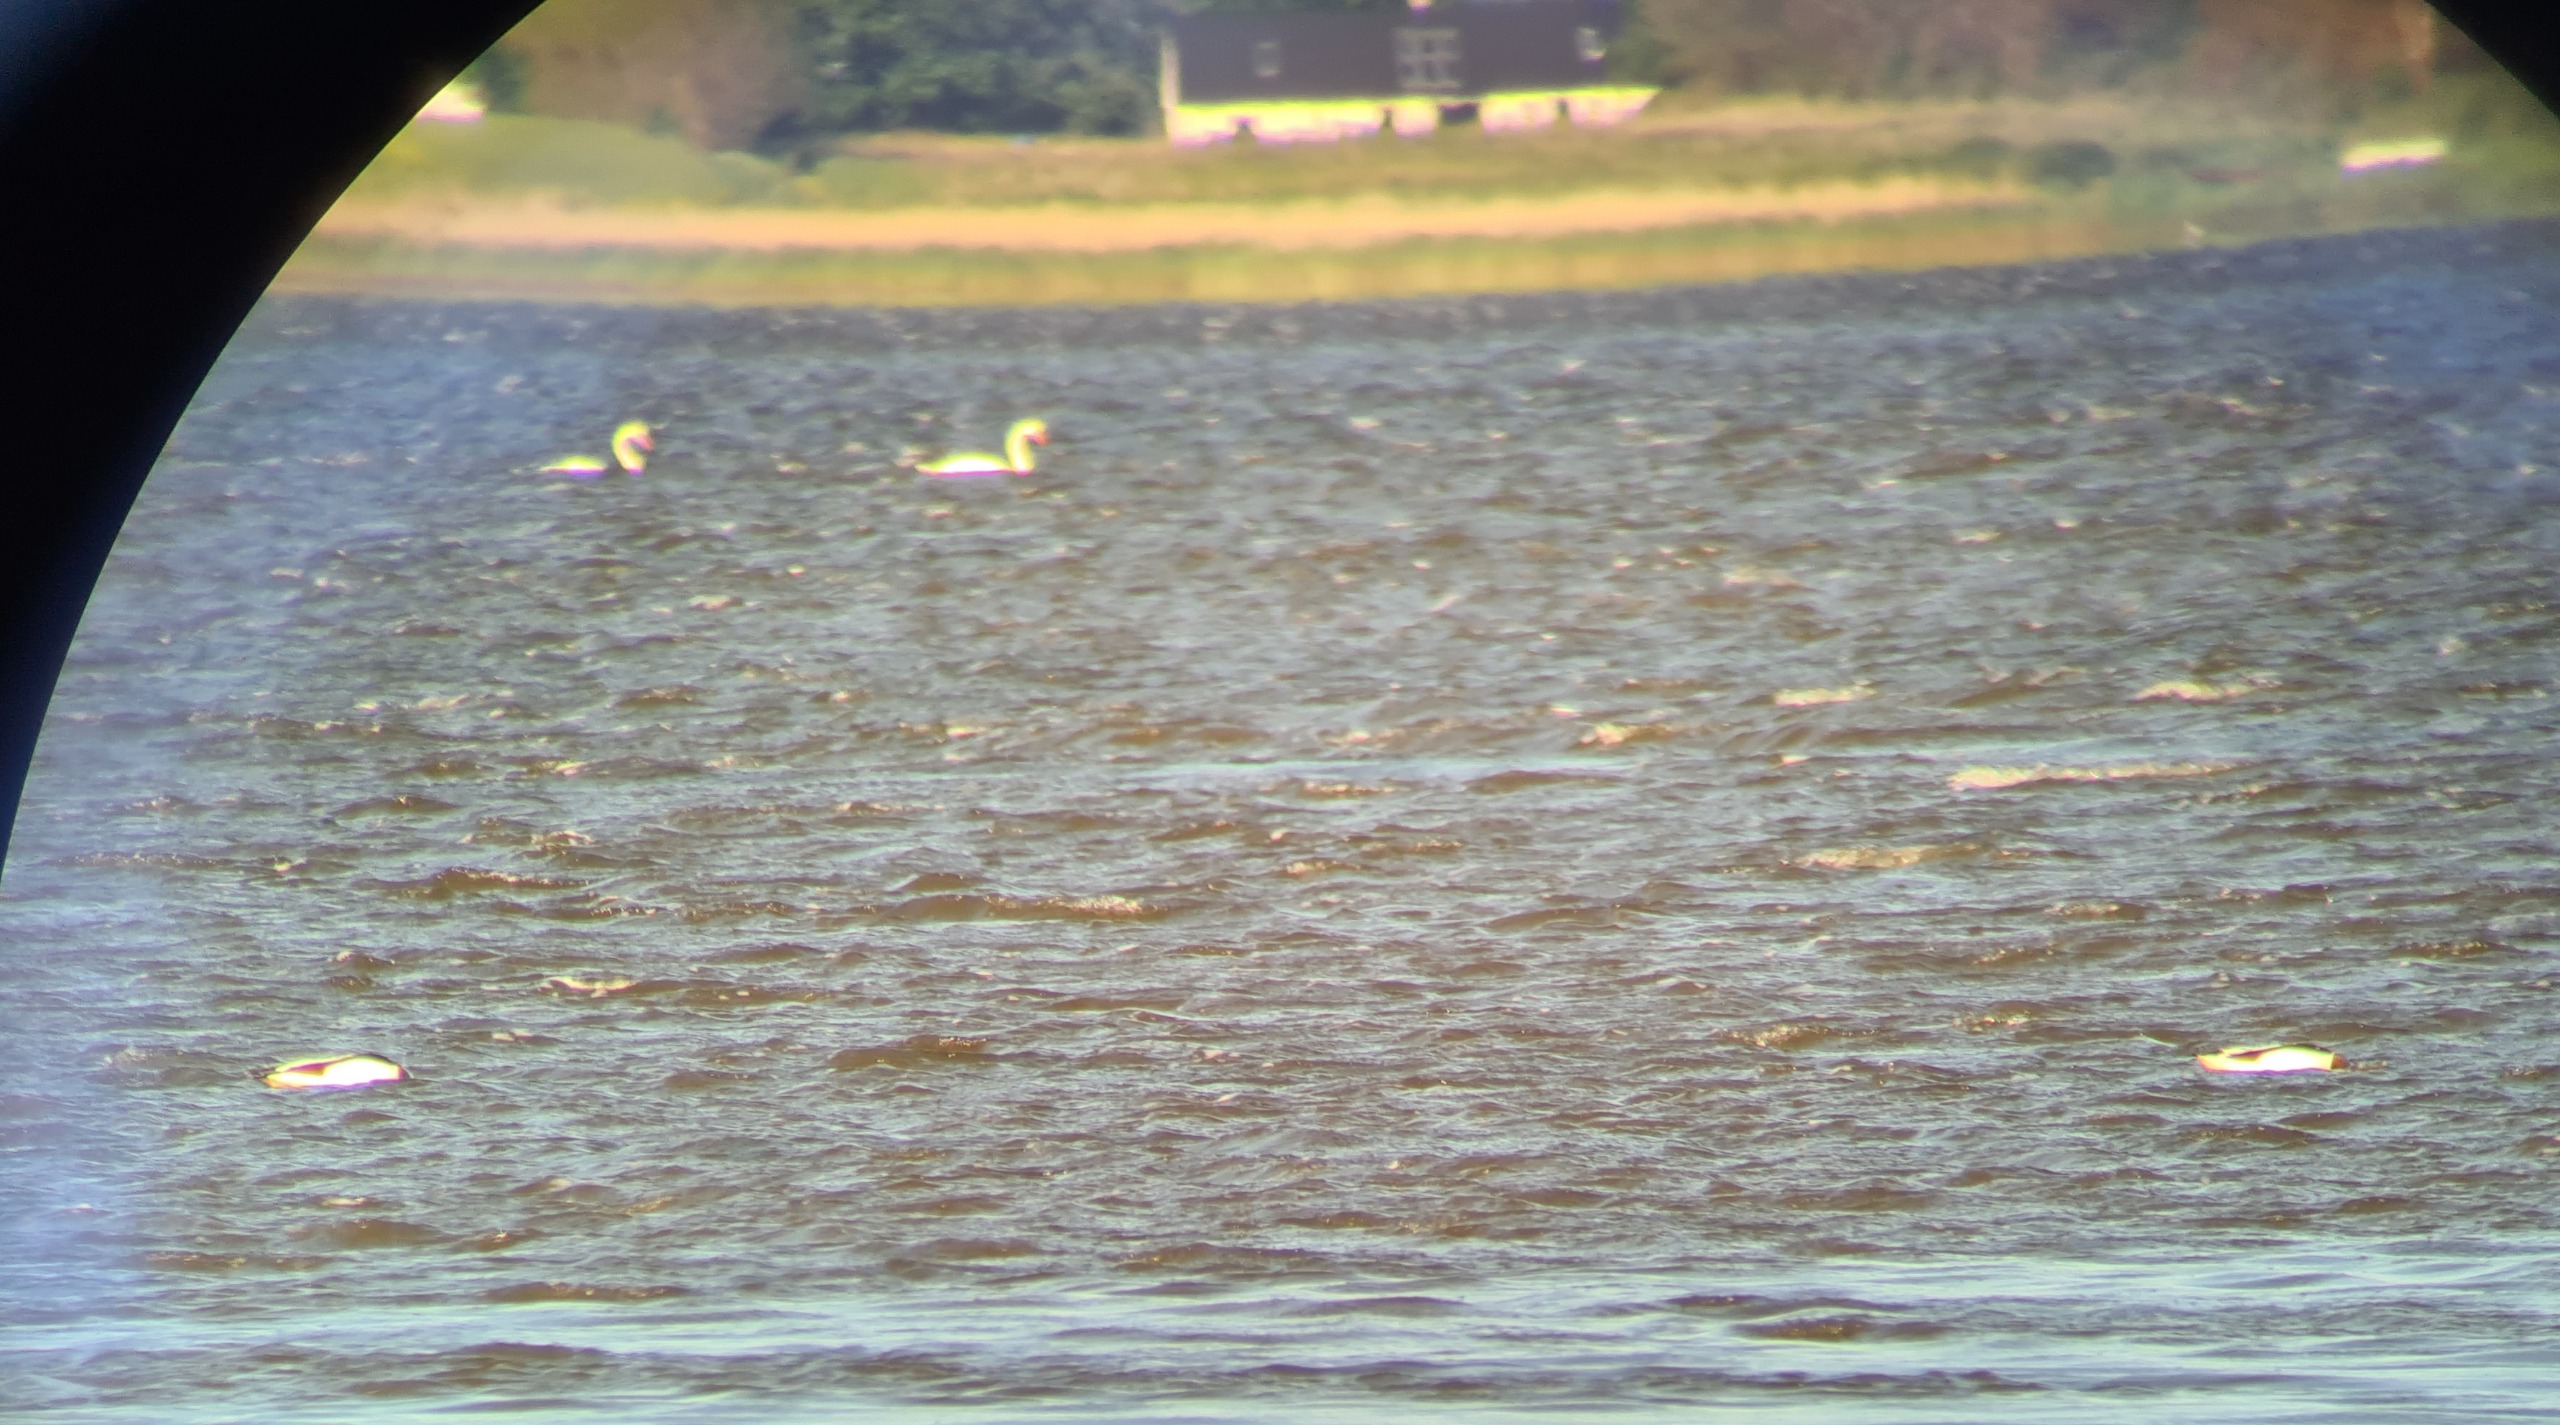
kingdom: Animalia
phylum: Chordata
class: Aves
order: Anseriformes
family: Anatidae
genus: Tadorna
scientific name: Tadorna tadorna
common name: Gravand
